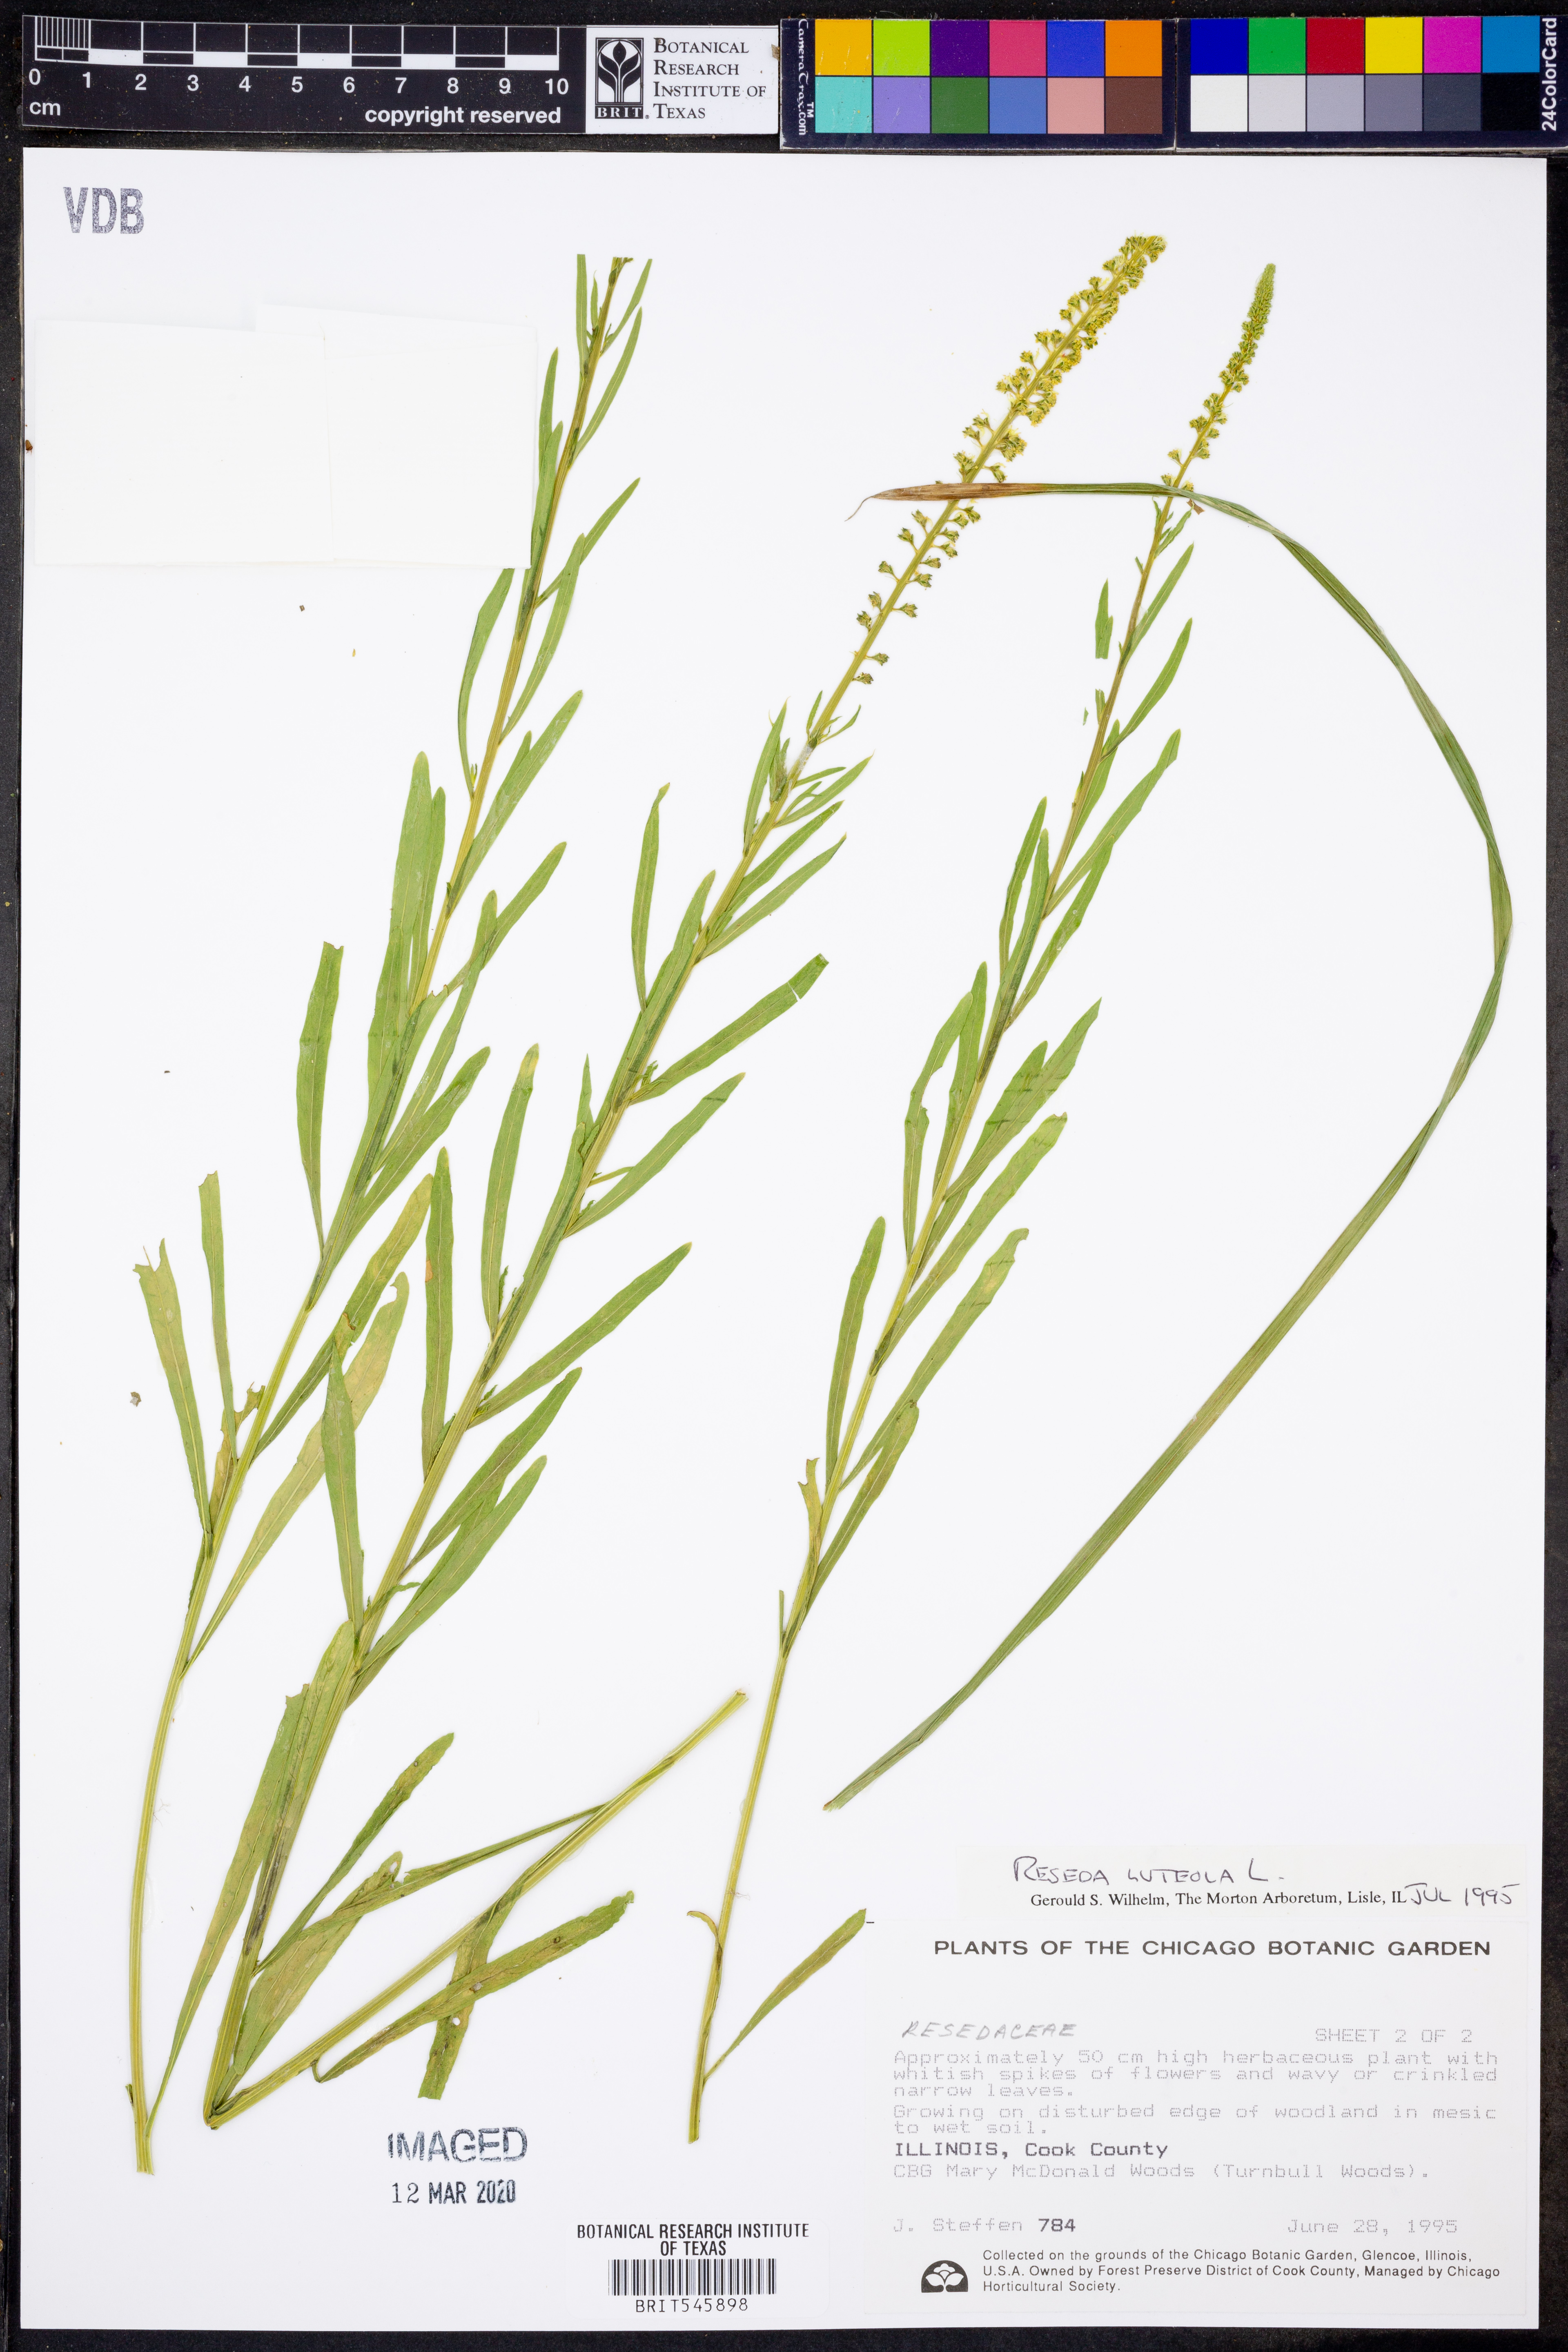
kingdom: Plantae
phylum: Tracheophyta
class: Magnoliopsida
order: Brassicales
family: Resedaceae
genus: Reseda
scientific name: Reseda luteola
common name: Weld
